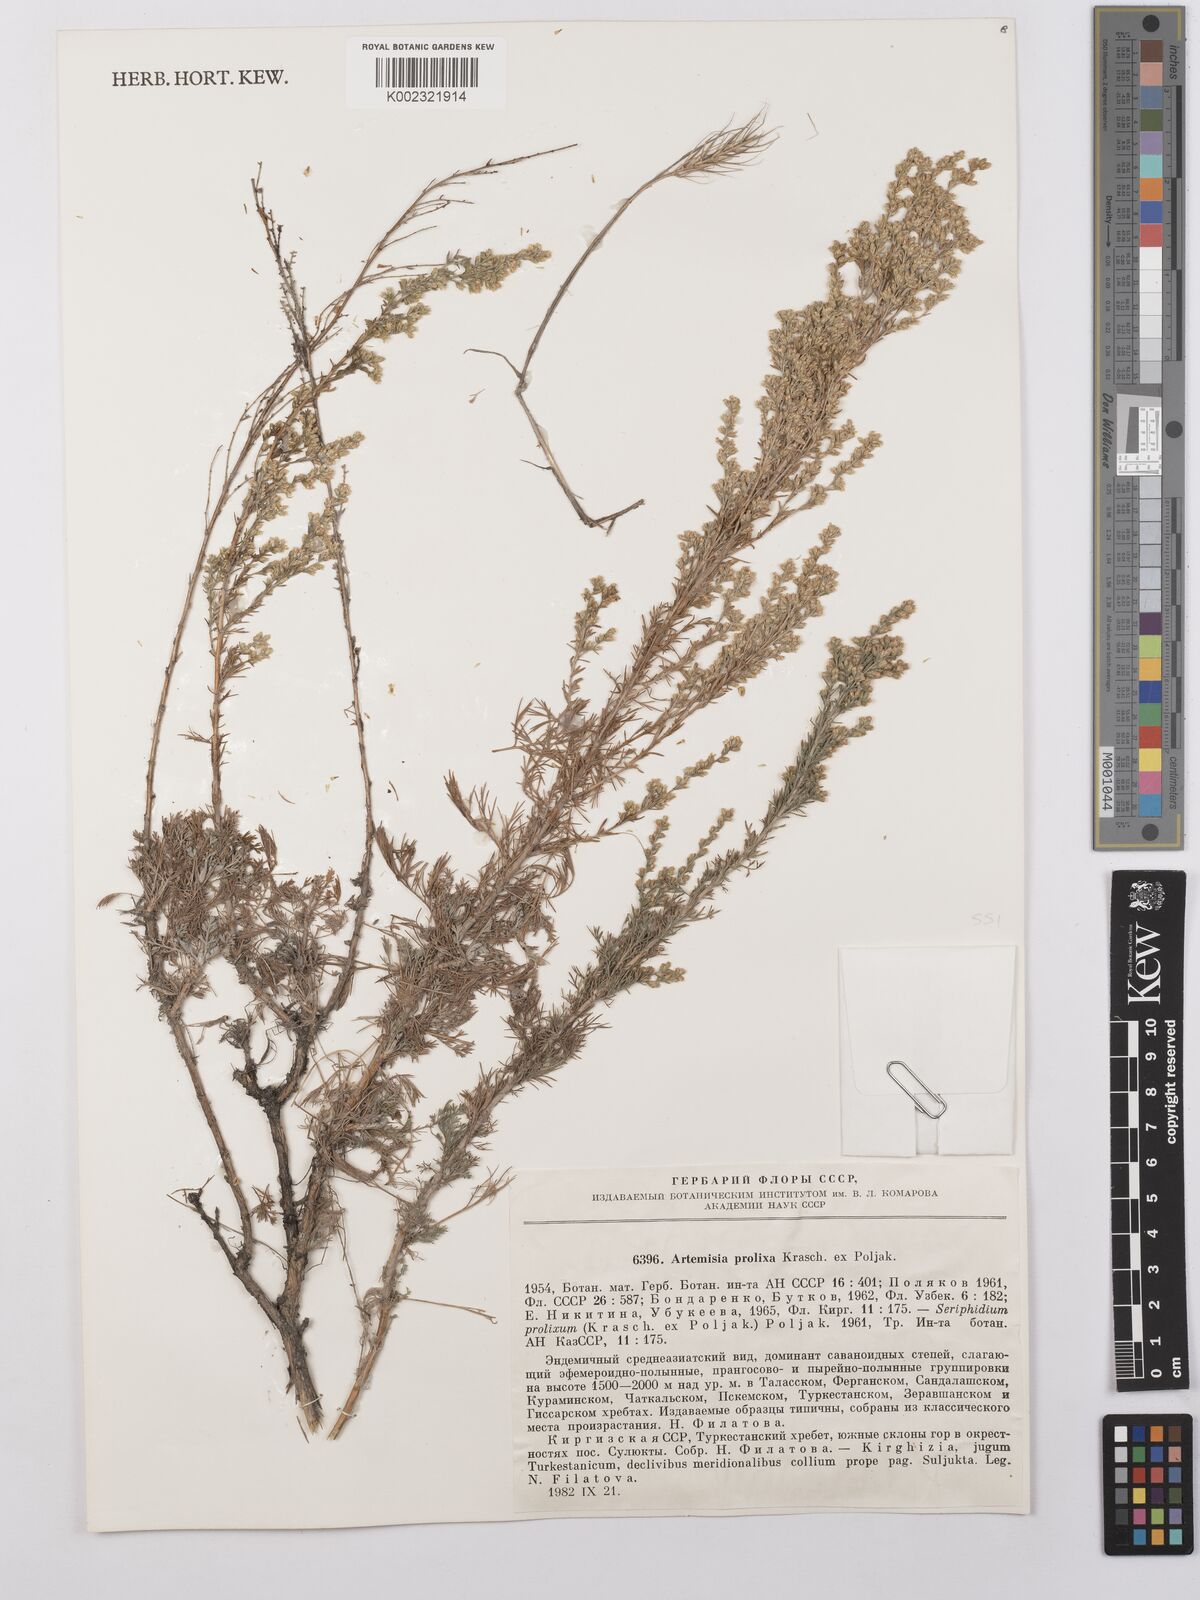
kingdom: Plantae
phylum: Tracheophyta
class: Magnoliopsida
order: Asterales
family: Asteraceae
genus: Artemisia
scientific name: Artemisia prolixa
